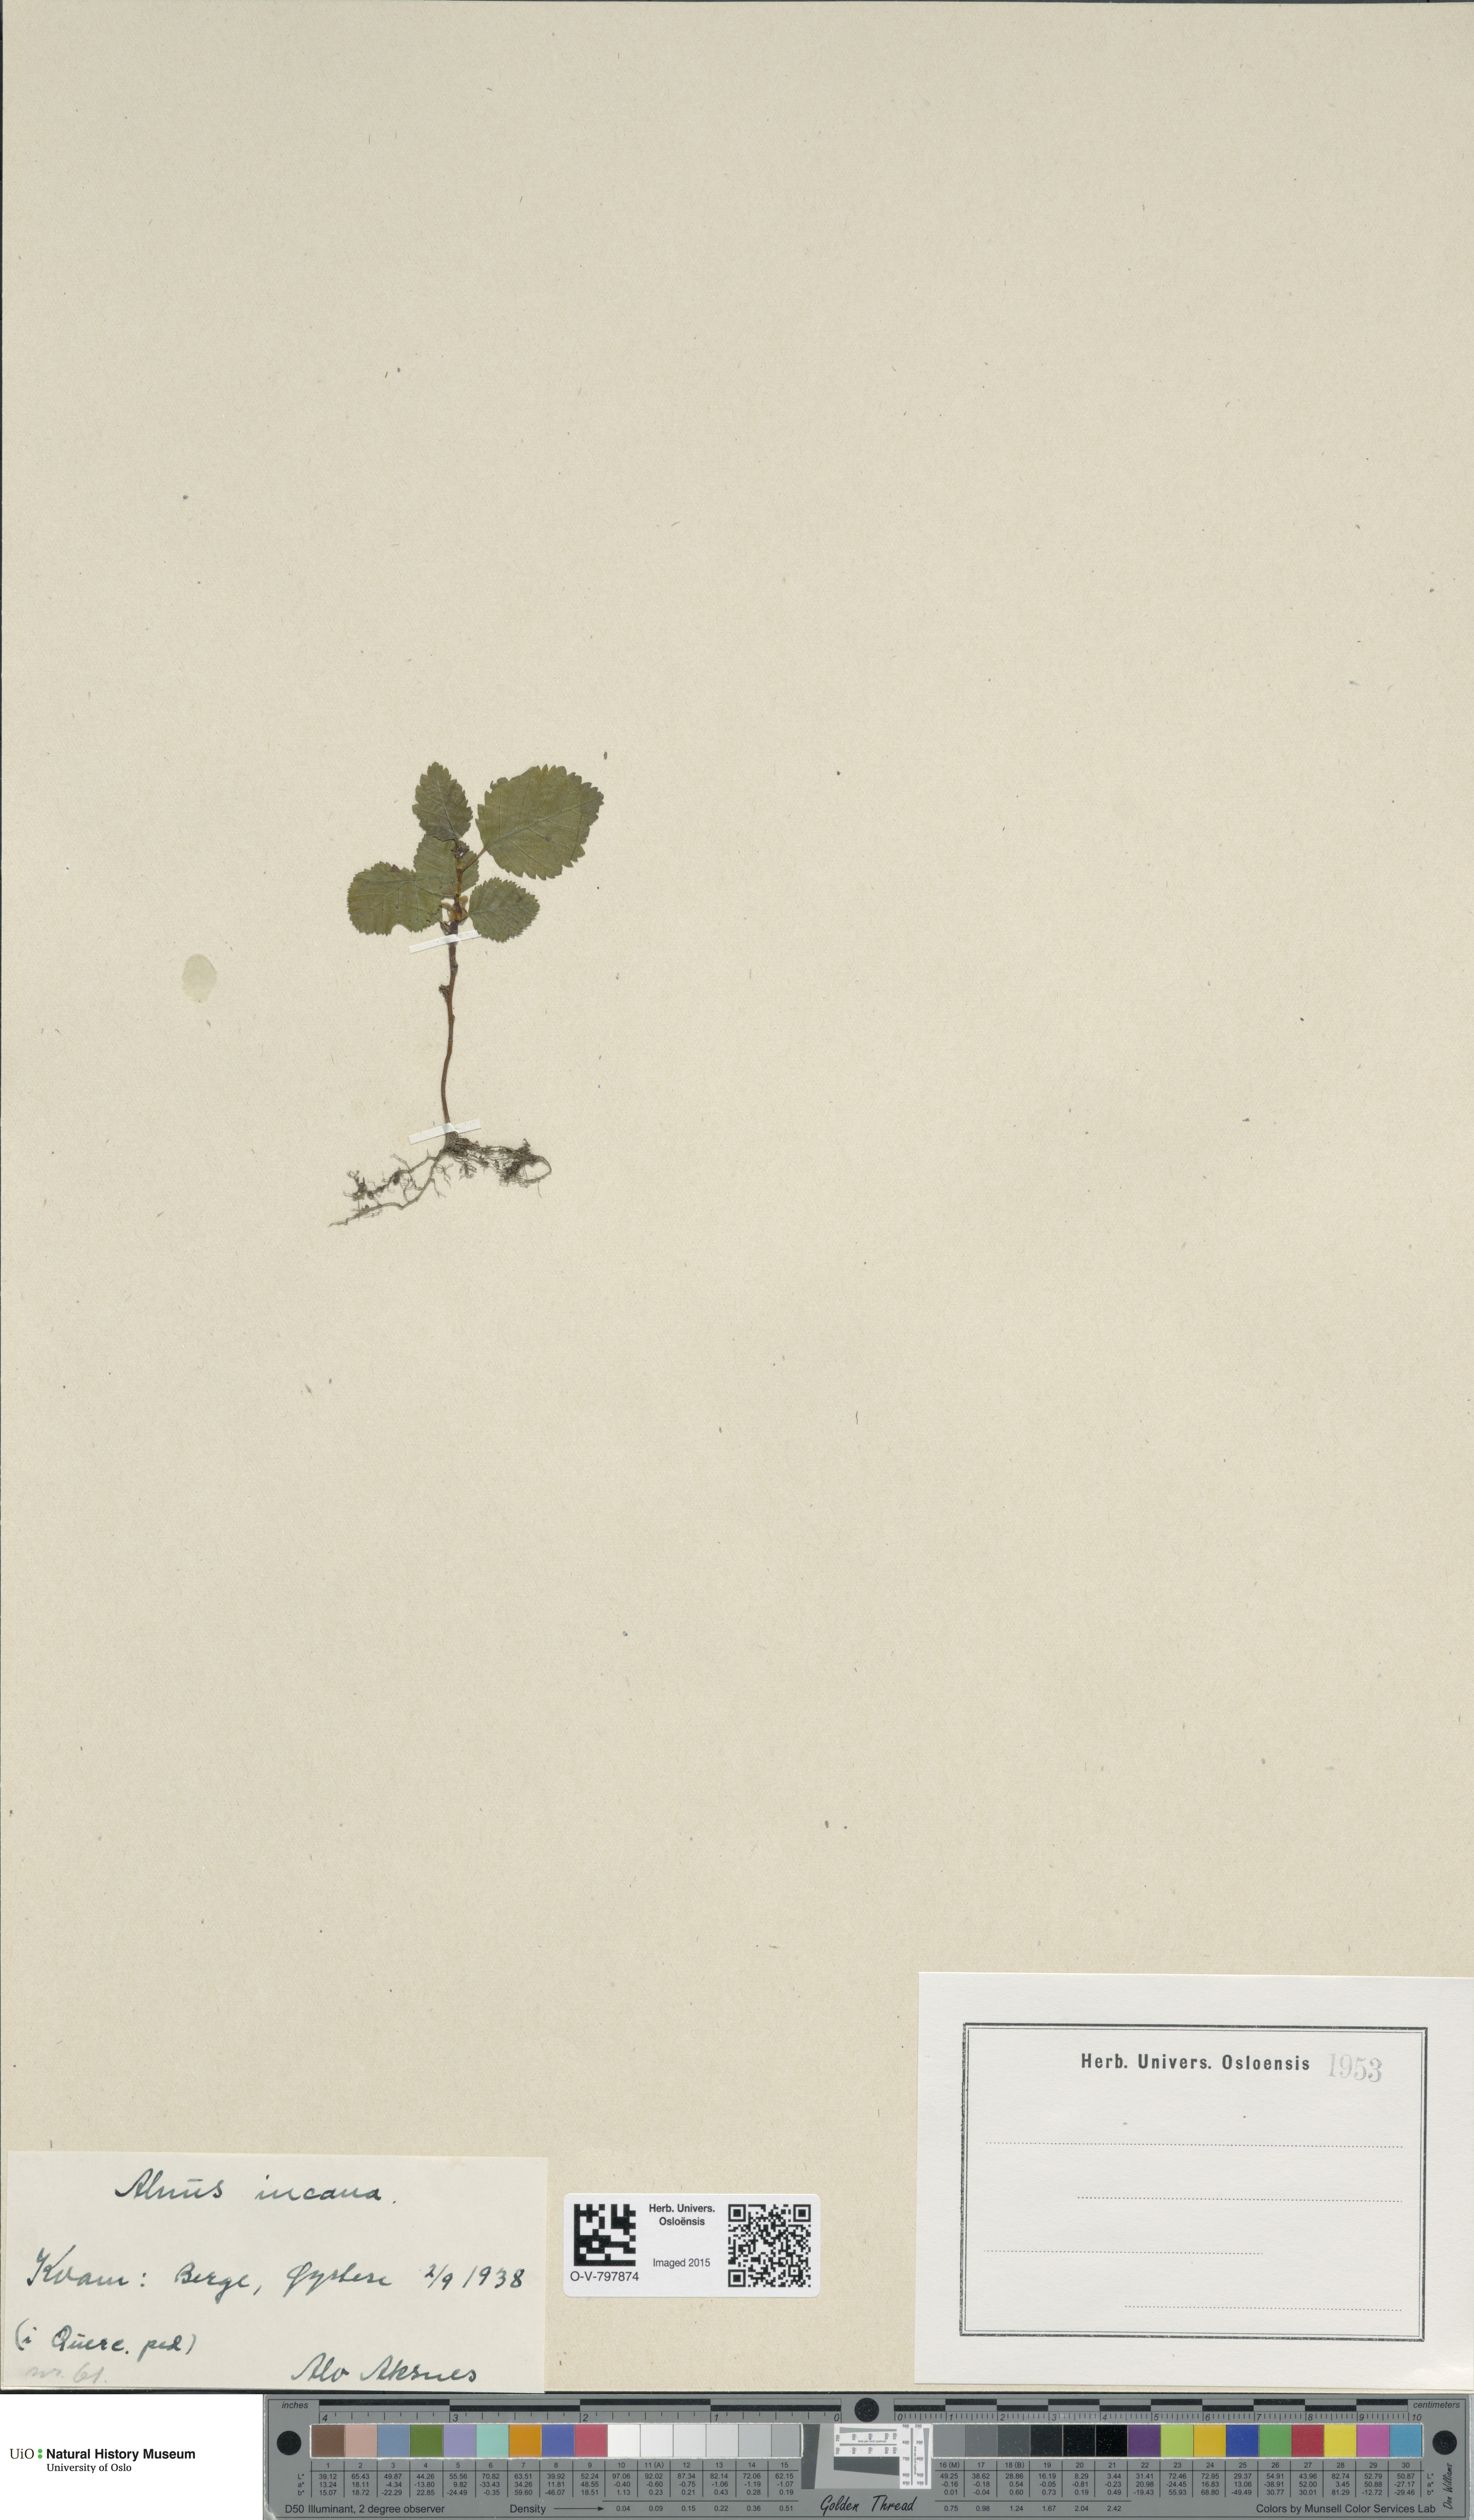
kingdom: Plantae
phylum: Tracheophyta
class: Magnoliopsida
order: Fagales
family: Betulaceae
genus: Alnus
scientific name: Alnus incana
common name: Grey alder
